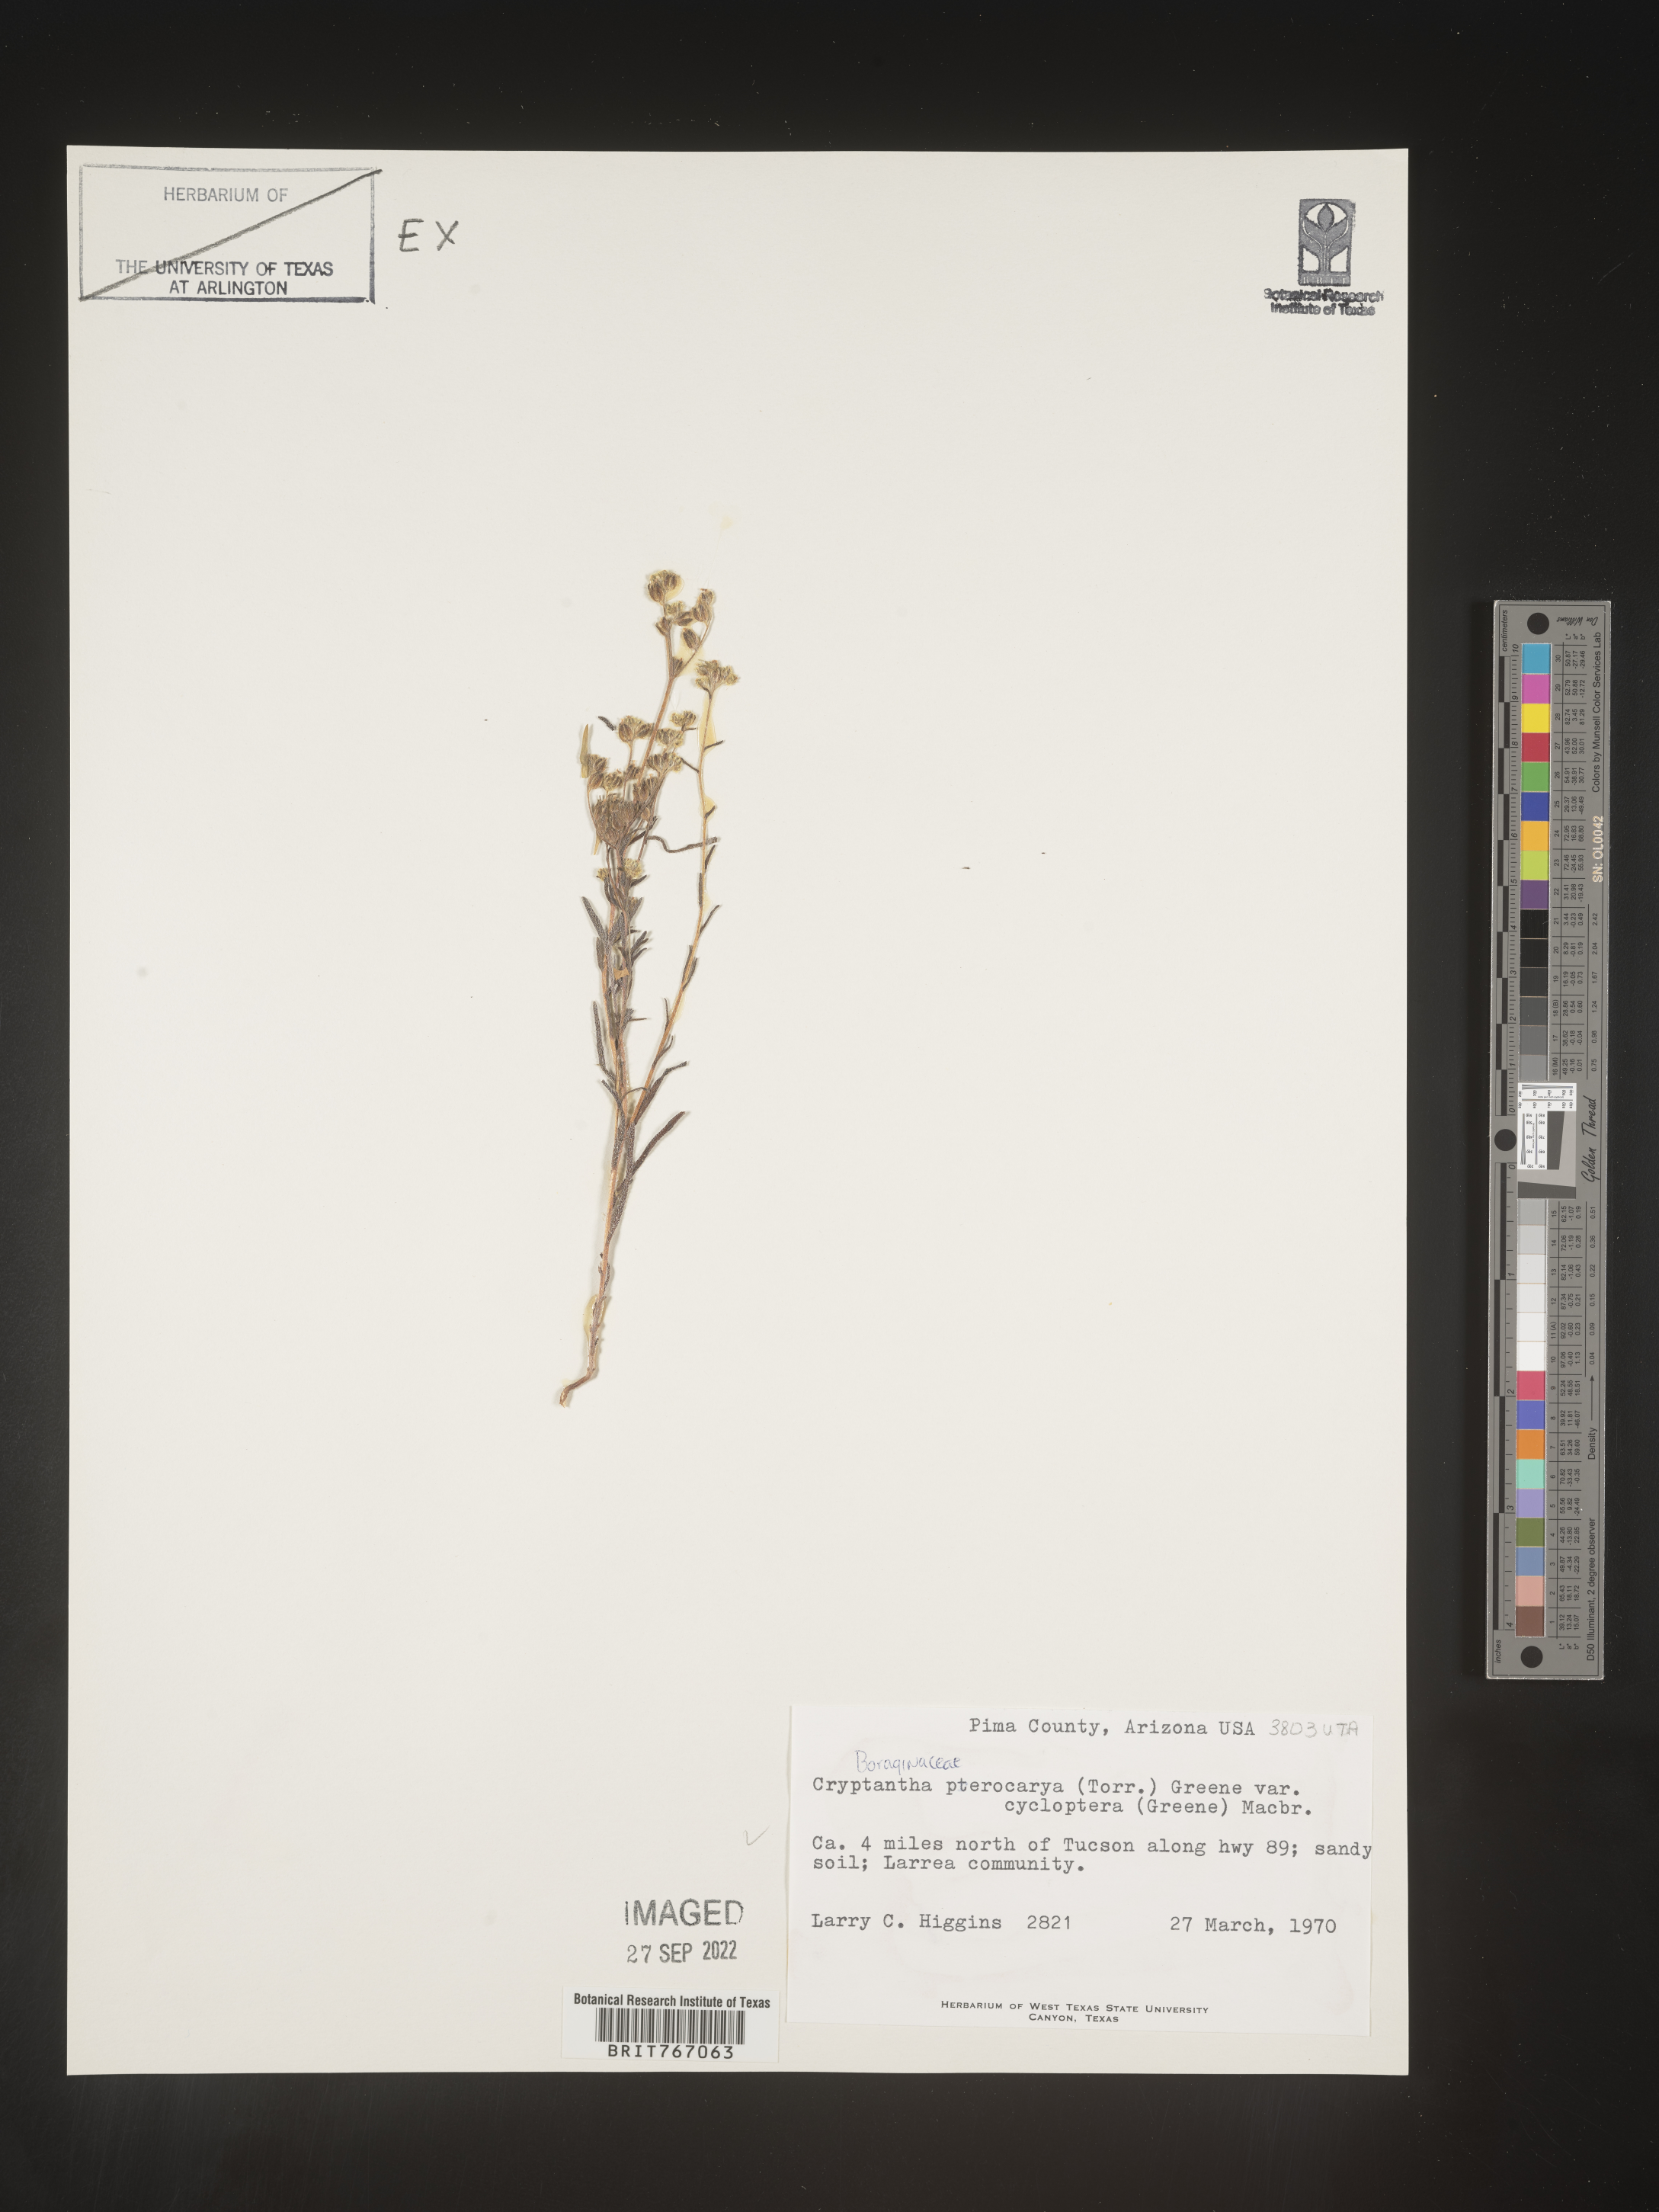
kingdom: Plantae
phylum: Tracheophyta
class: Magnoliopsida
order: Boraginales
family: Boraginaceae
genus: Cryptantha
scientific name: Cryptantha pterocarya
